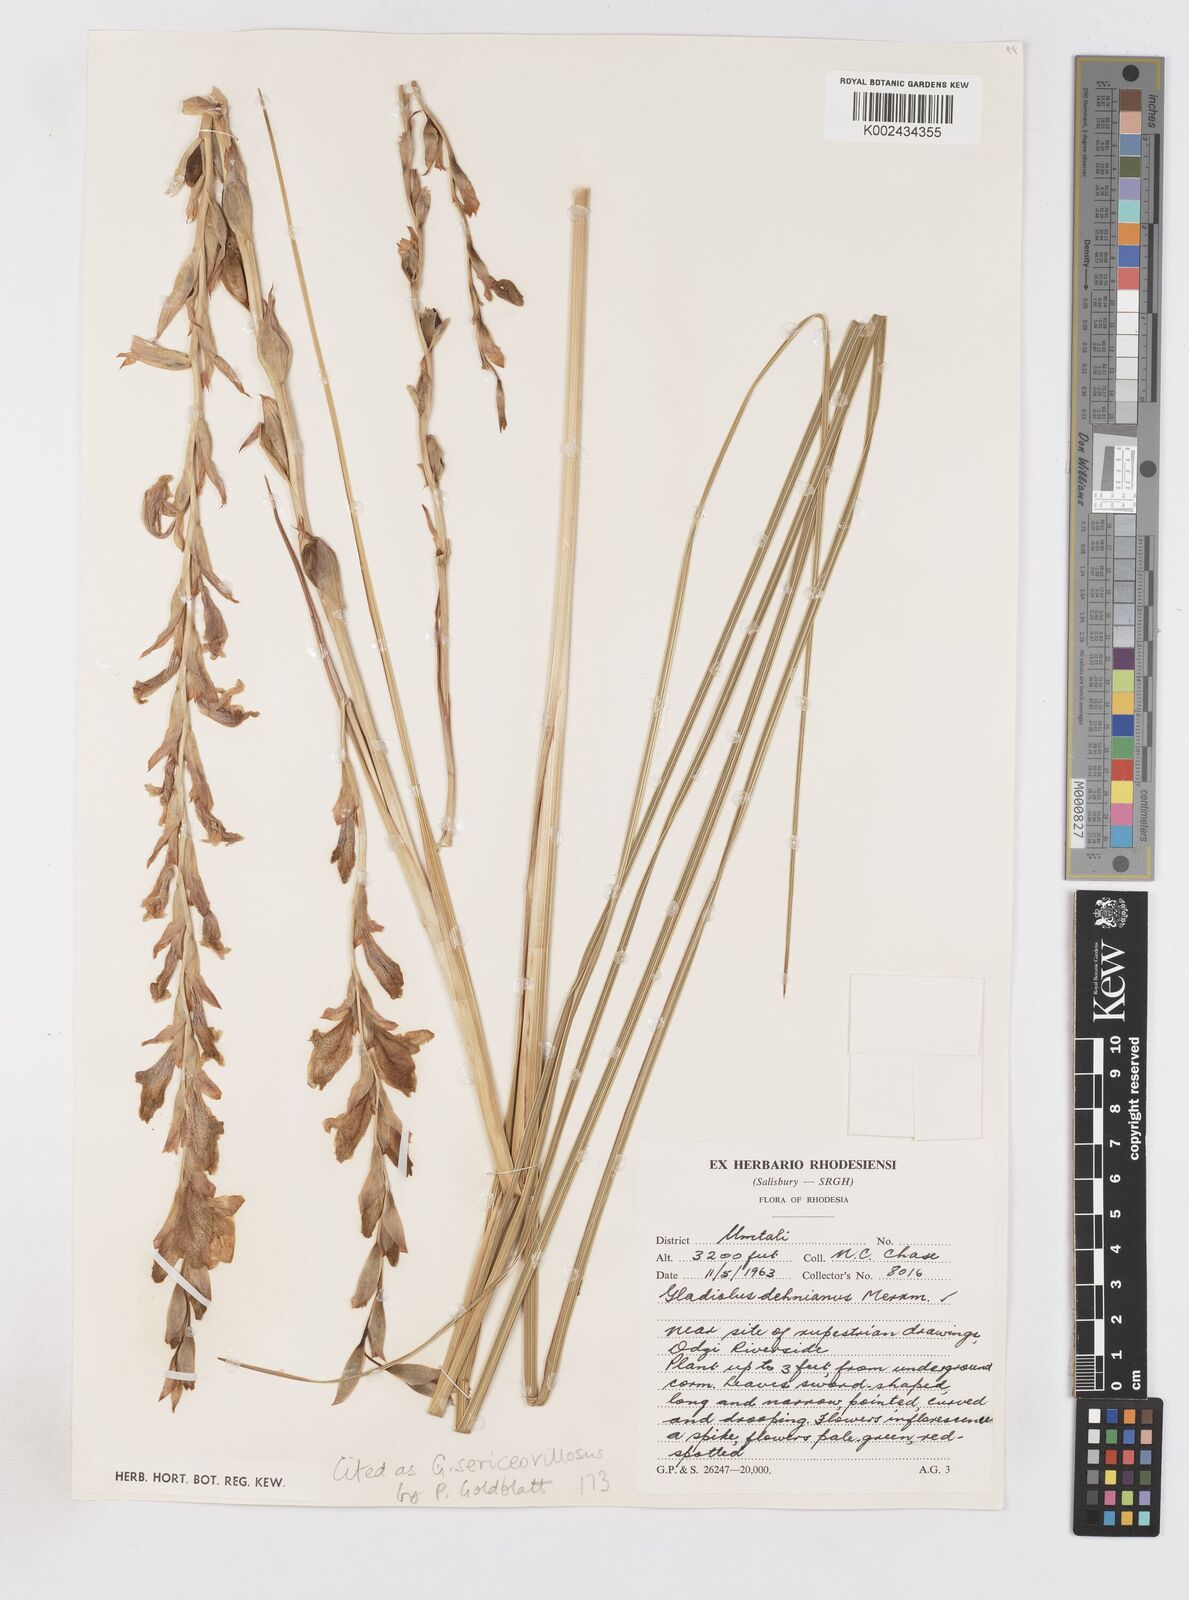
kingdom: Plantae
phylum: Tracheophyta
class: Liliopsida
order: Asparagales
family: Iridaceae
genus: Gladiolus
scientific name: Gladiolus sericeovillosus
